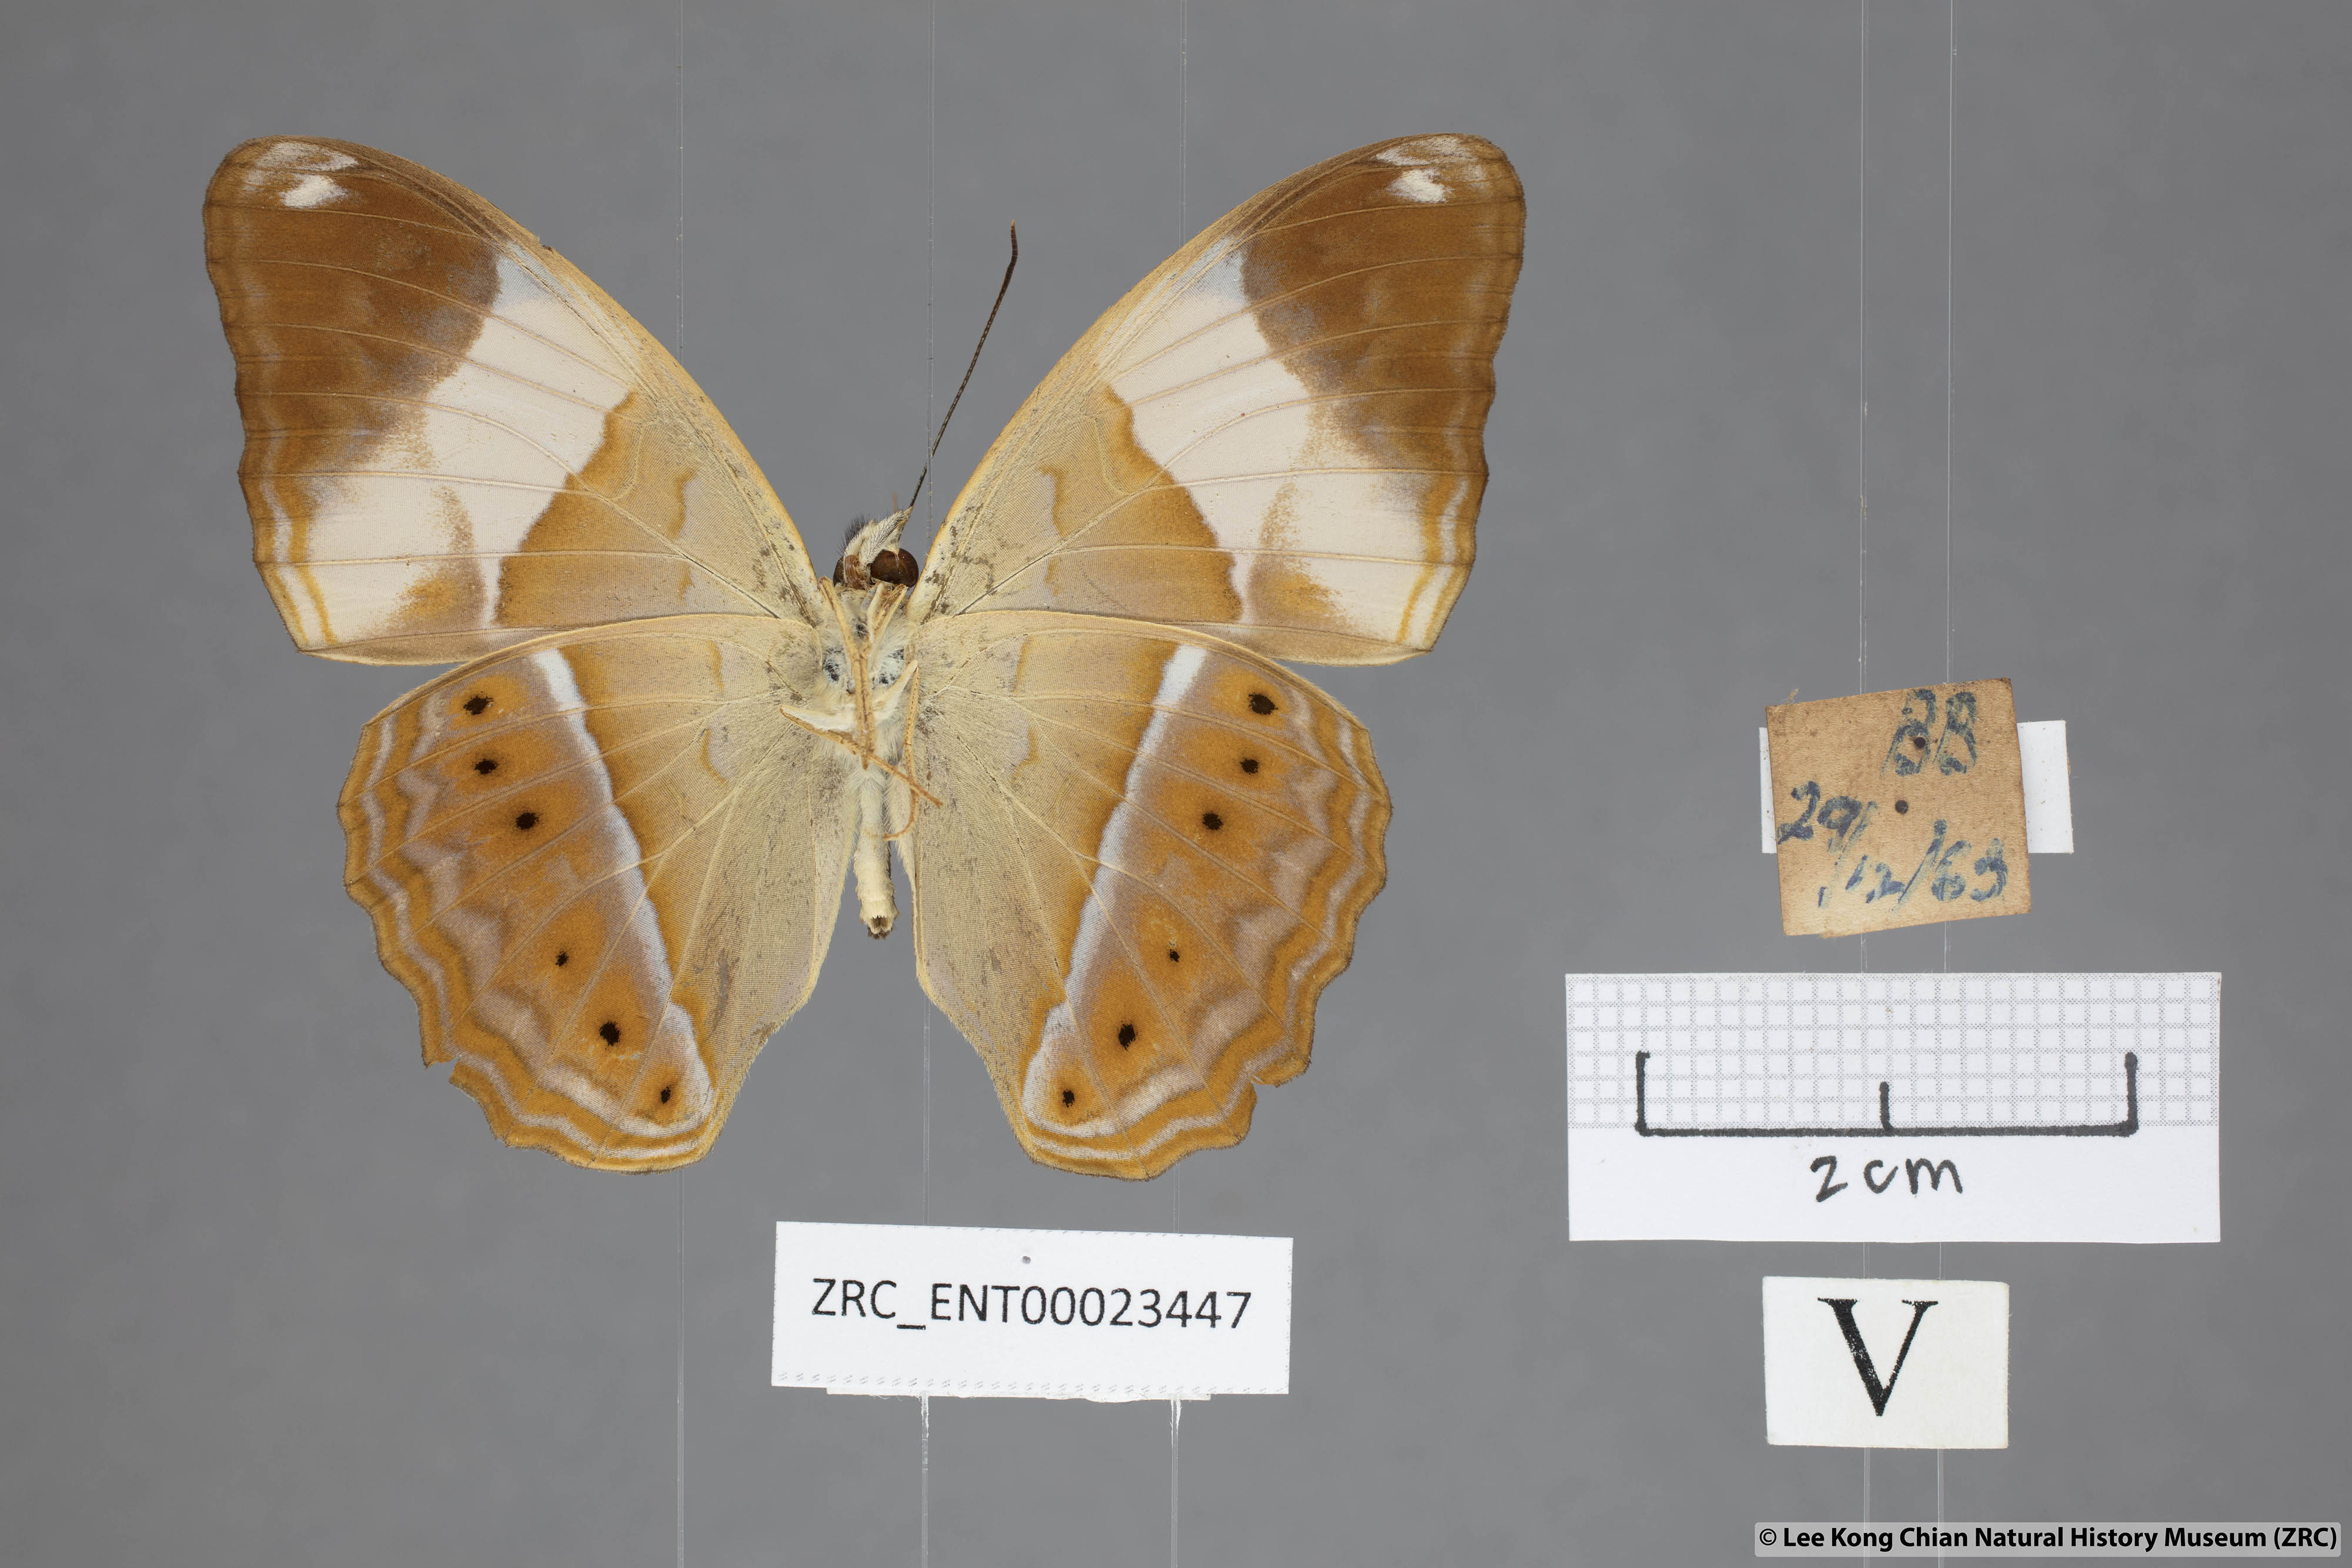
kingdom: Animalia
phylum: Arthropoda
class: Insecta
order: Lepidoptera
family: Nymphalidae
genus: Cirrochroa
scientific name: Cirrochroa orissa
